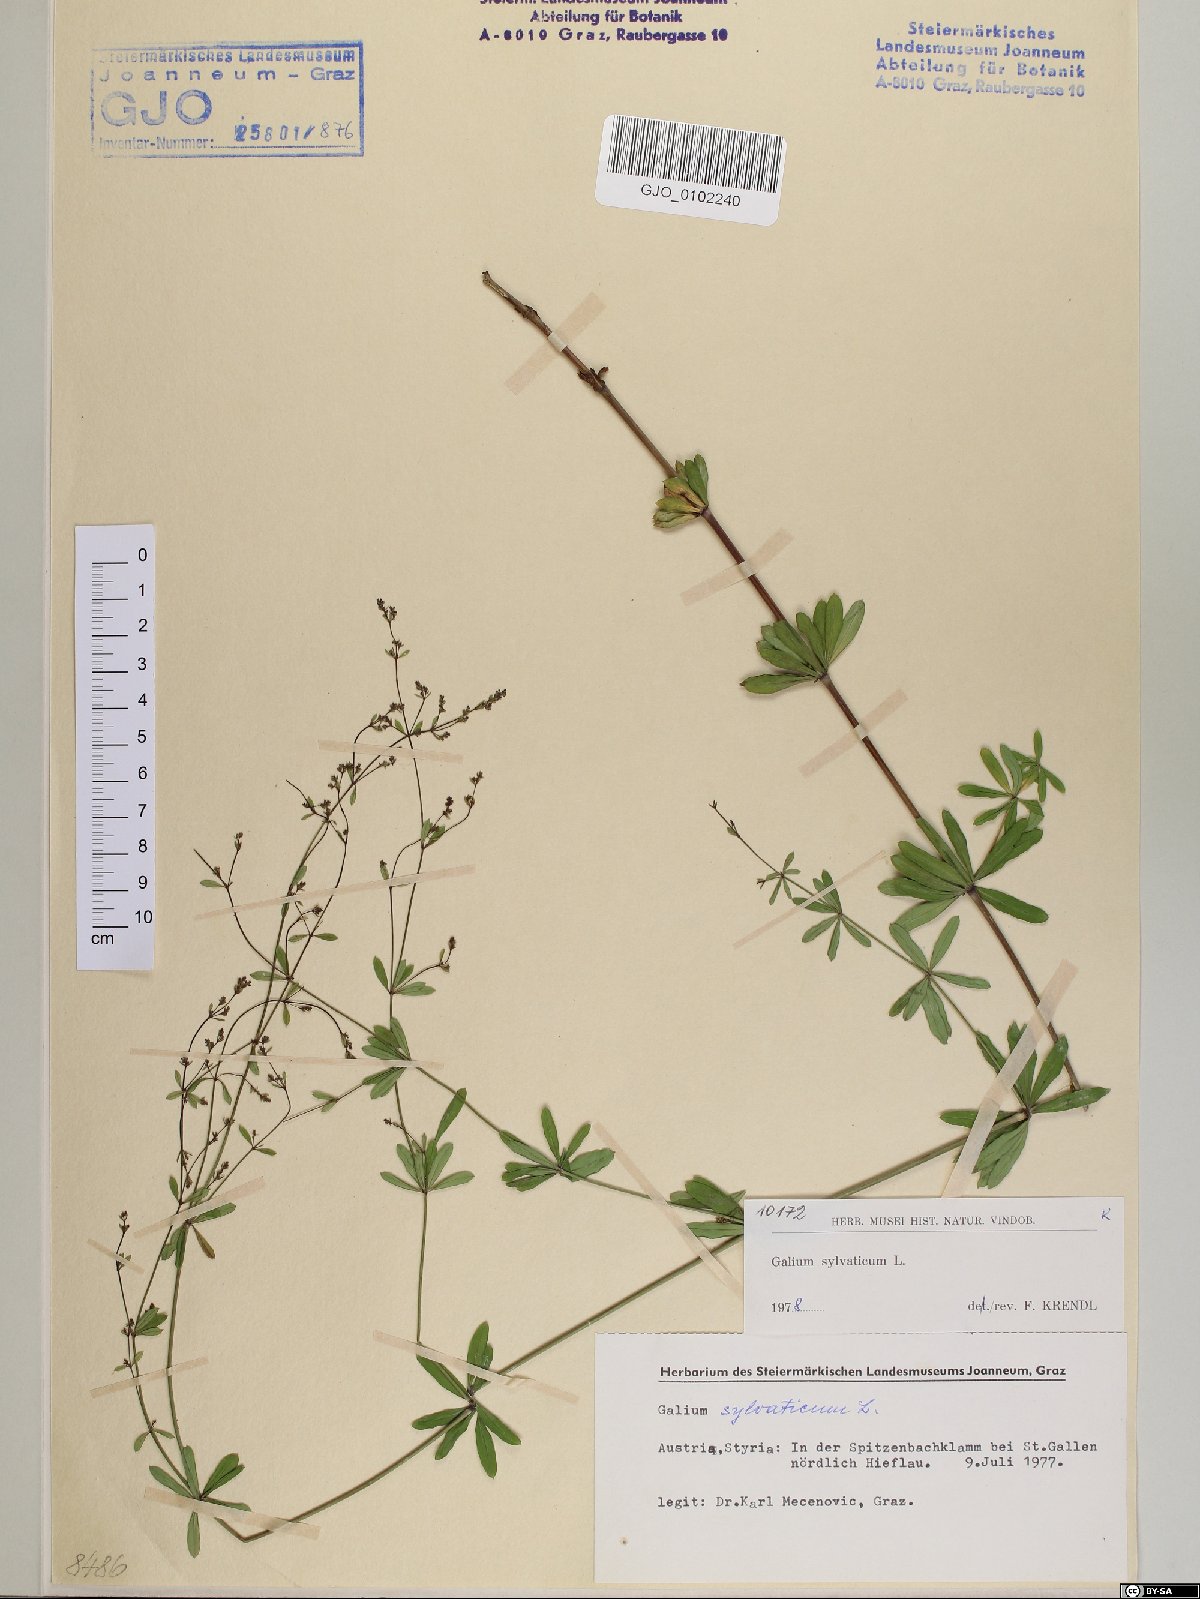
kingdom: Plantae
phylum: Tracheophyta
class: Magnoliopsida
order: Gentianales
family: Rubiaceae
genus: Galium
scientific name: Galium sylvaticum
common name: Wood bedstraw
